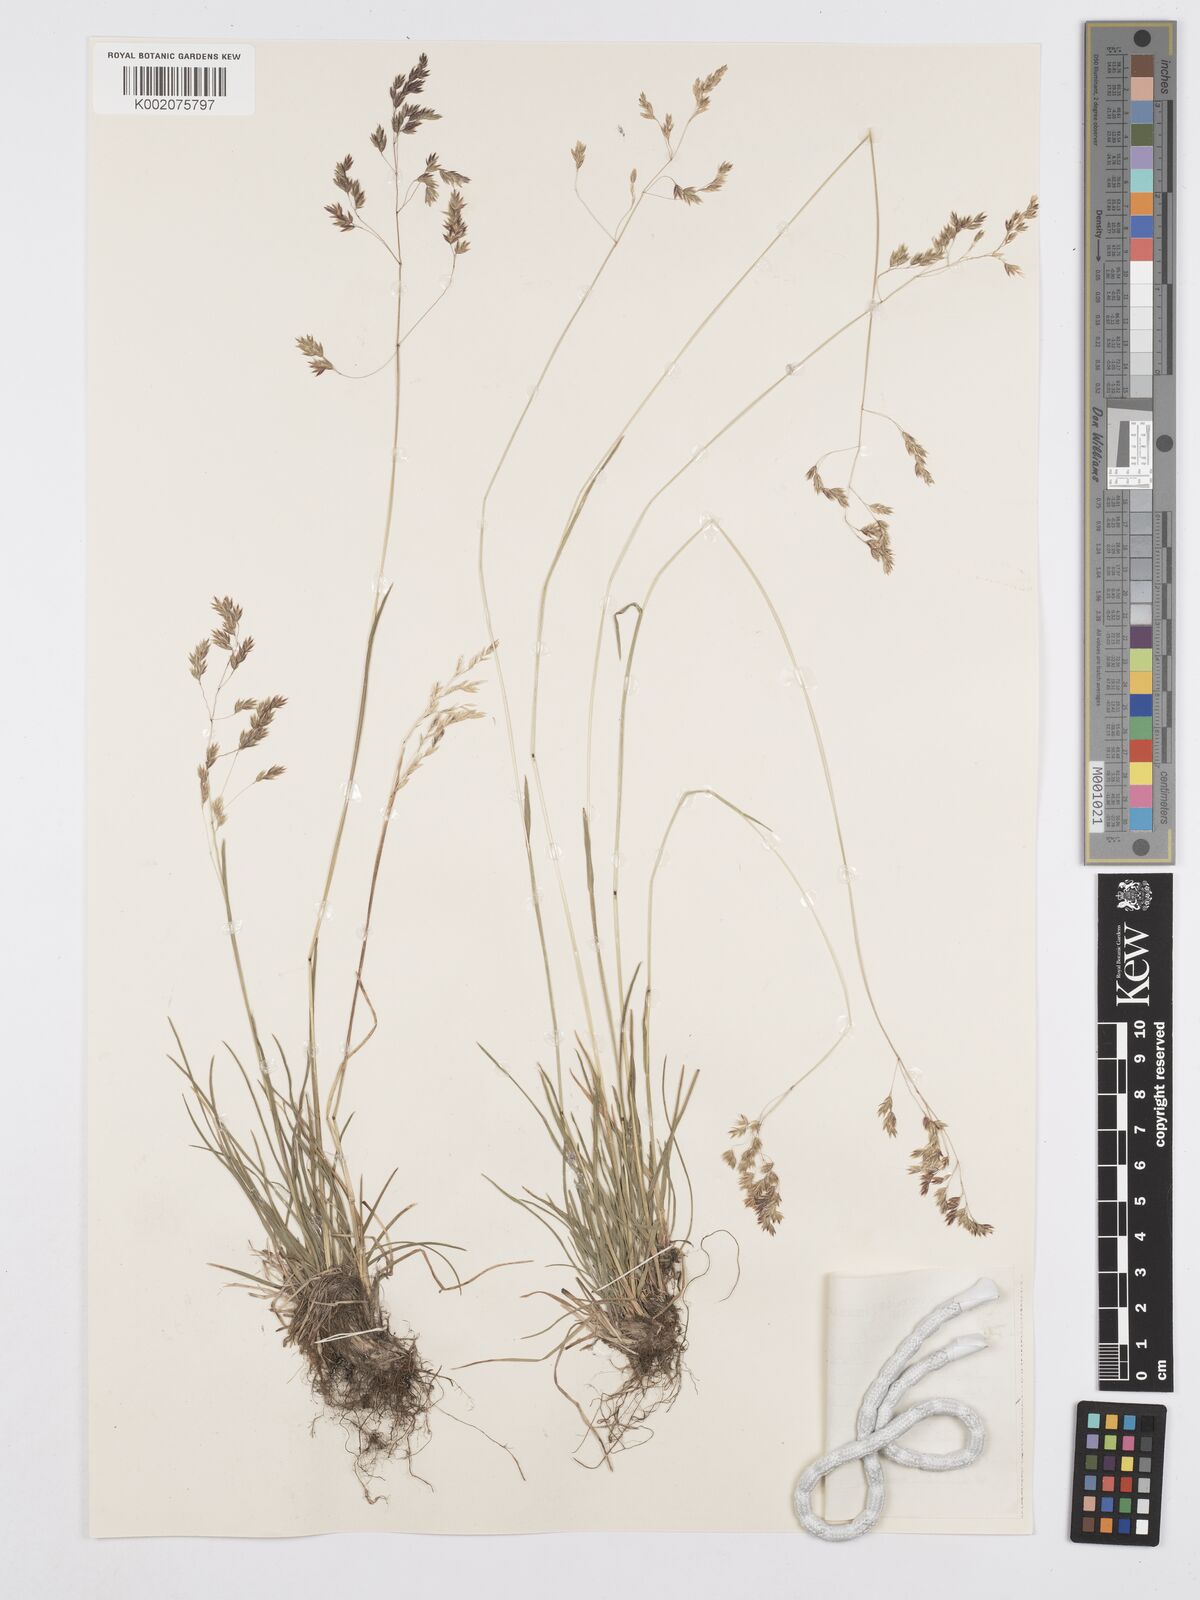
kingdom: Plantae
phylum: Tracheophyta
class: Liliopsida
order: Poales
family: Poaceae
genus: Poa
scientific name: Poa binata
